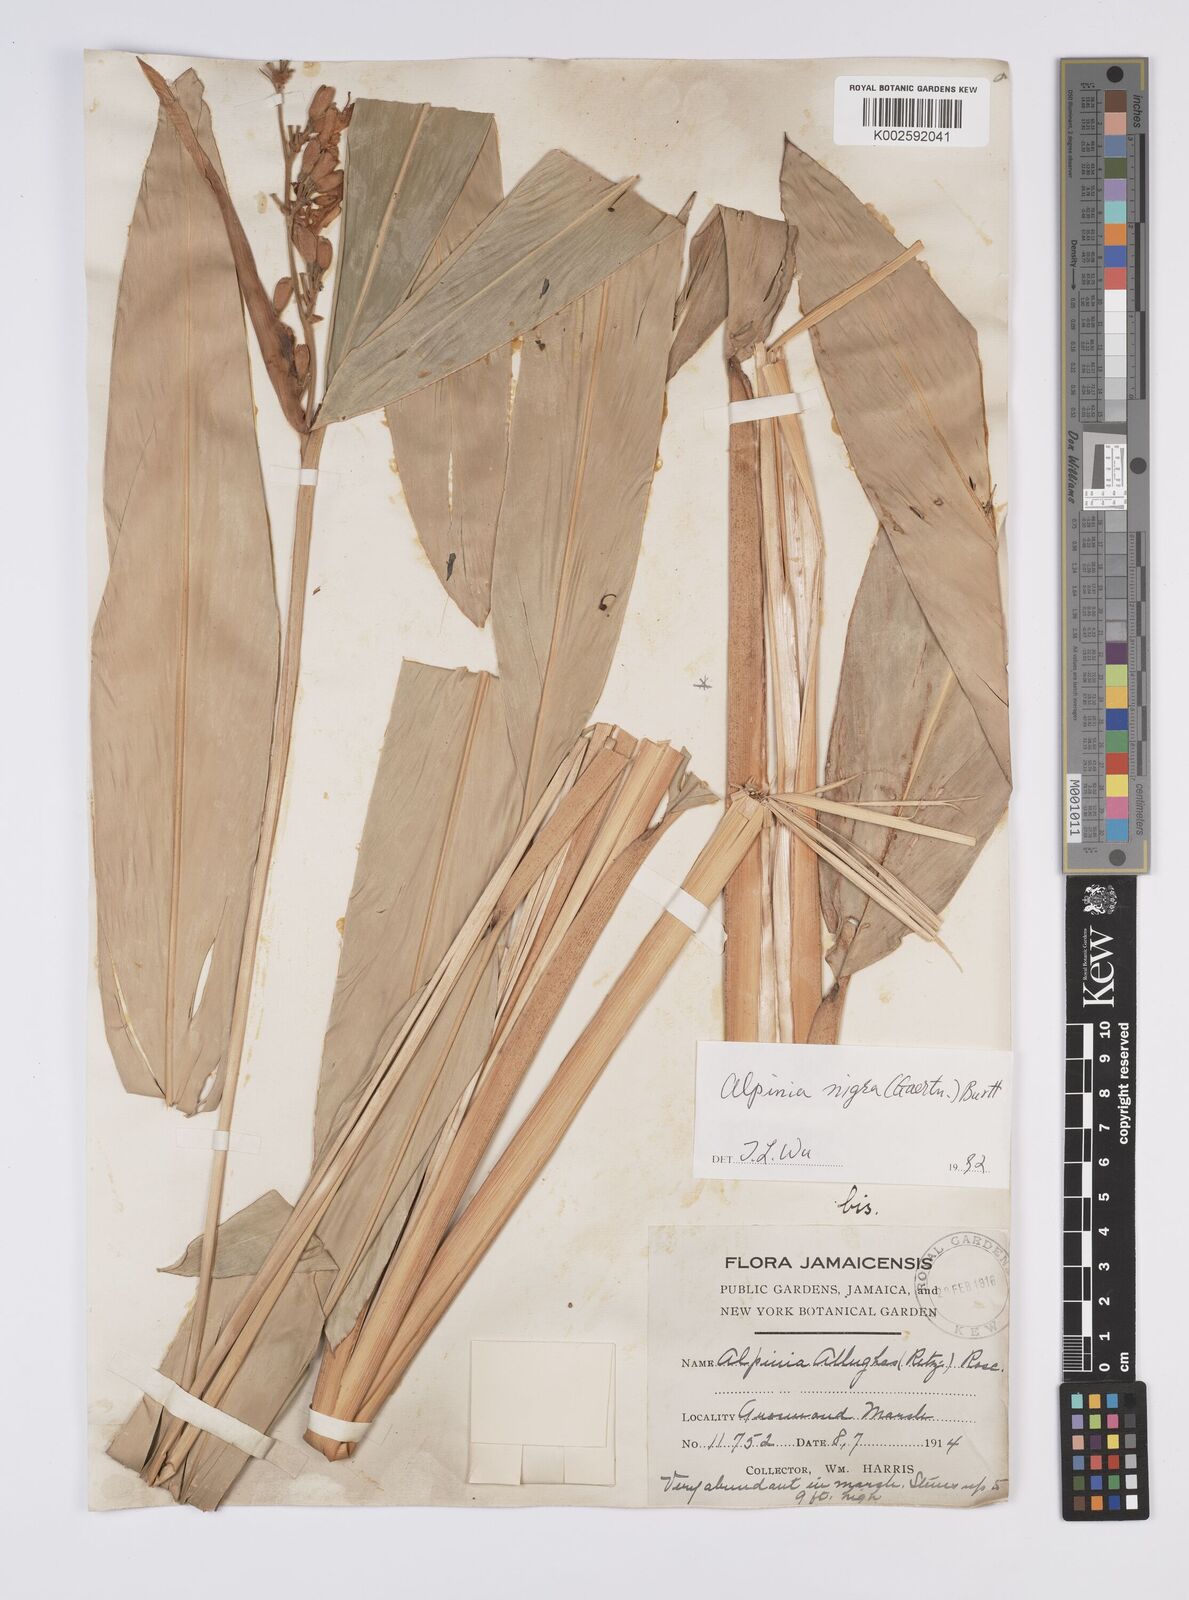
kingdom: Plantae
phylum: Tracheophyta
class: Liliopsida
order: Zingiberales
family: Zingiberaceae
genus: Alpinia
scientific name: Alpinia nigra
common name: Black fruited galanga
